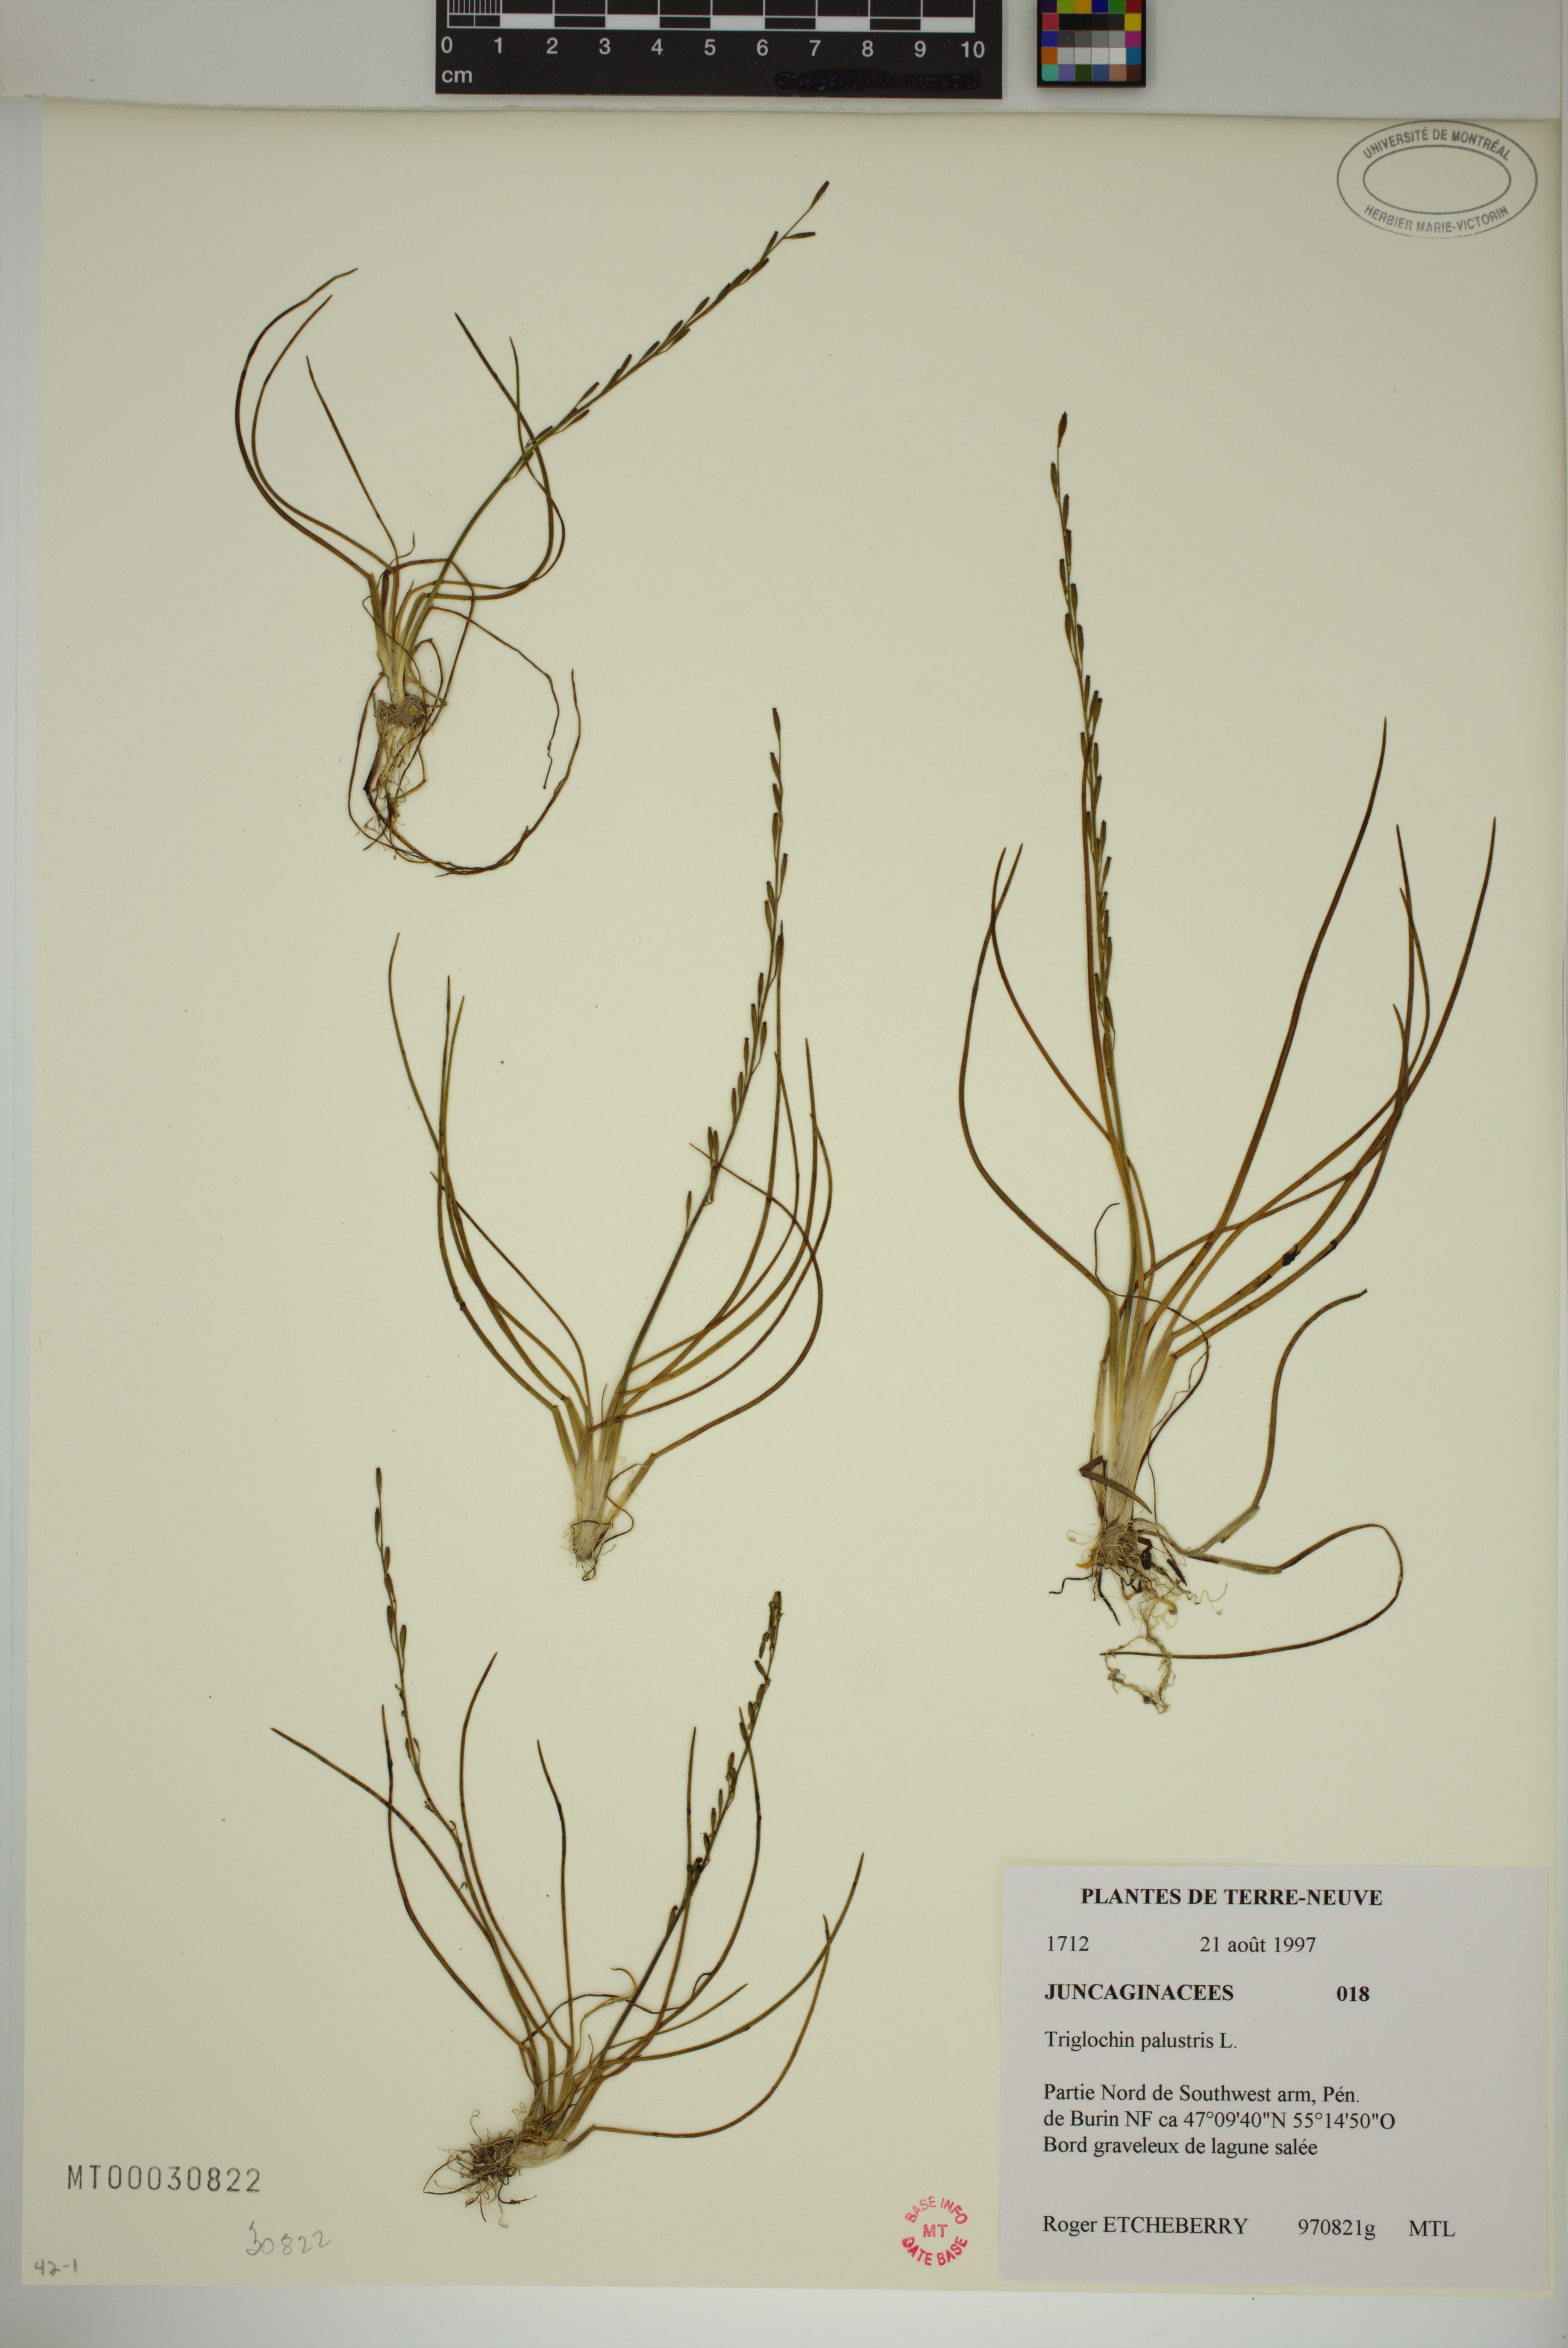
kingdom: Plantae
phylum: Tracheophyta
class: Liliopsida
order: Alismatales
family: Juncaginaceae
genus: Triglochin
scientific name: Triglochin palustris
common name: Marsh arrowgrass
